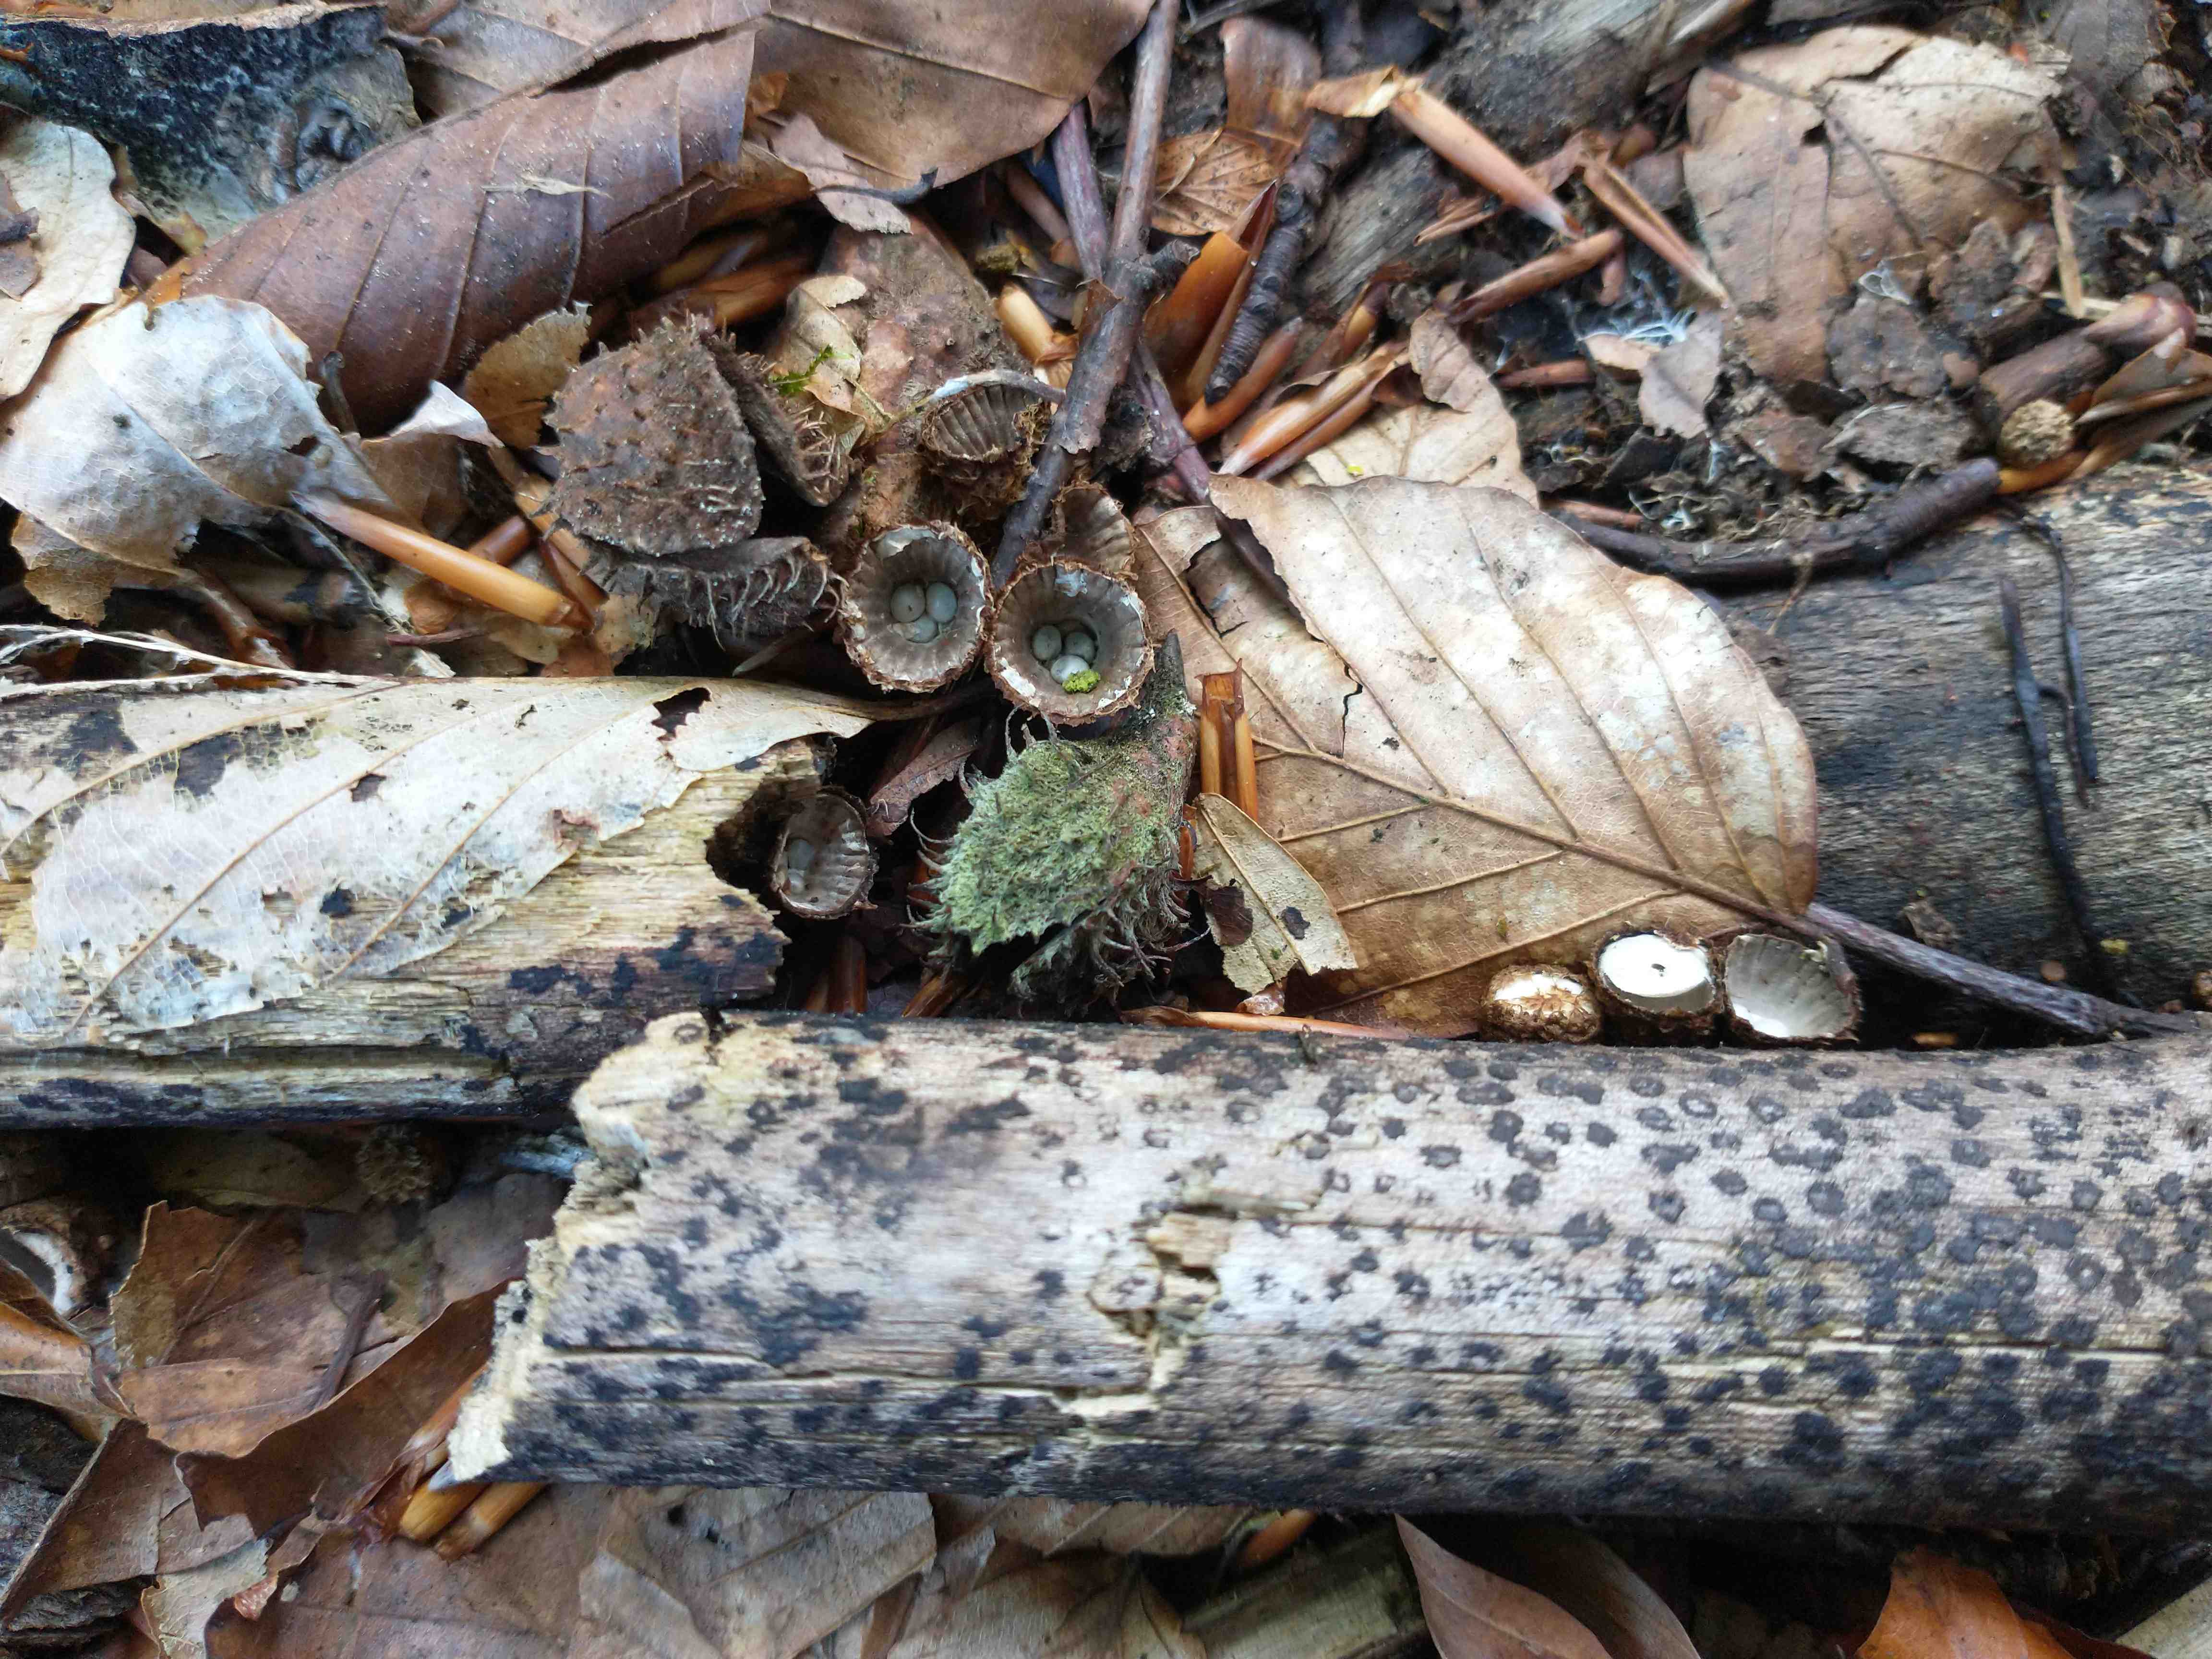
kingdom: Fungi
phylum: Basidiomycota
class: Agaricomycetes
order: Agaricales
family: Agaricaceae
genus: Cyathus
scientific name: Cyathus striatus
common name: stribet redesvamp
